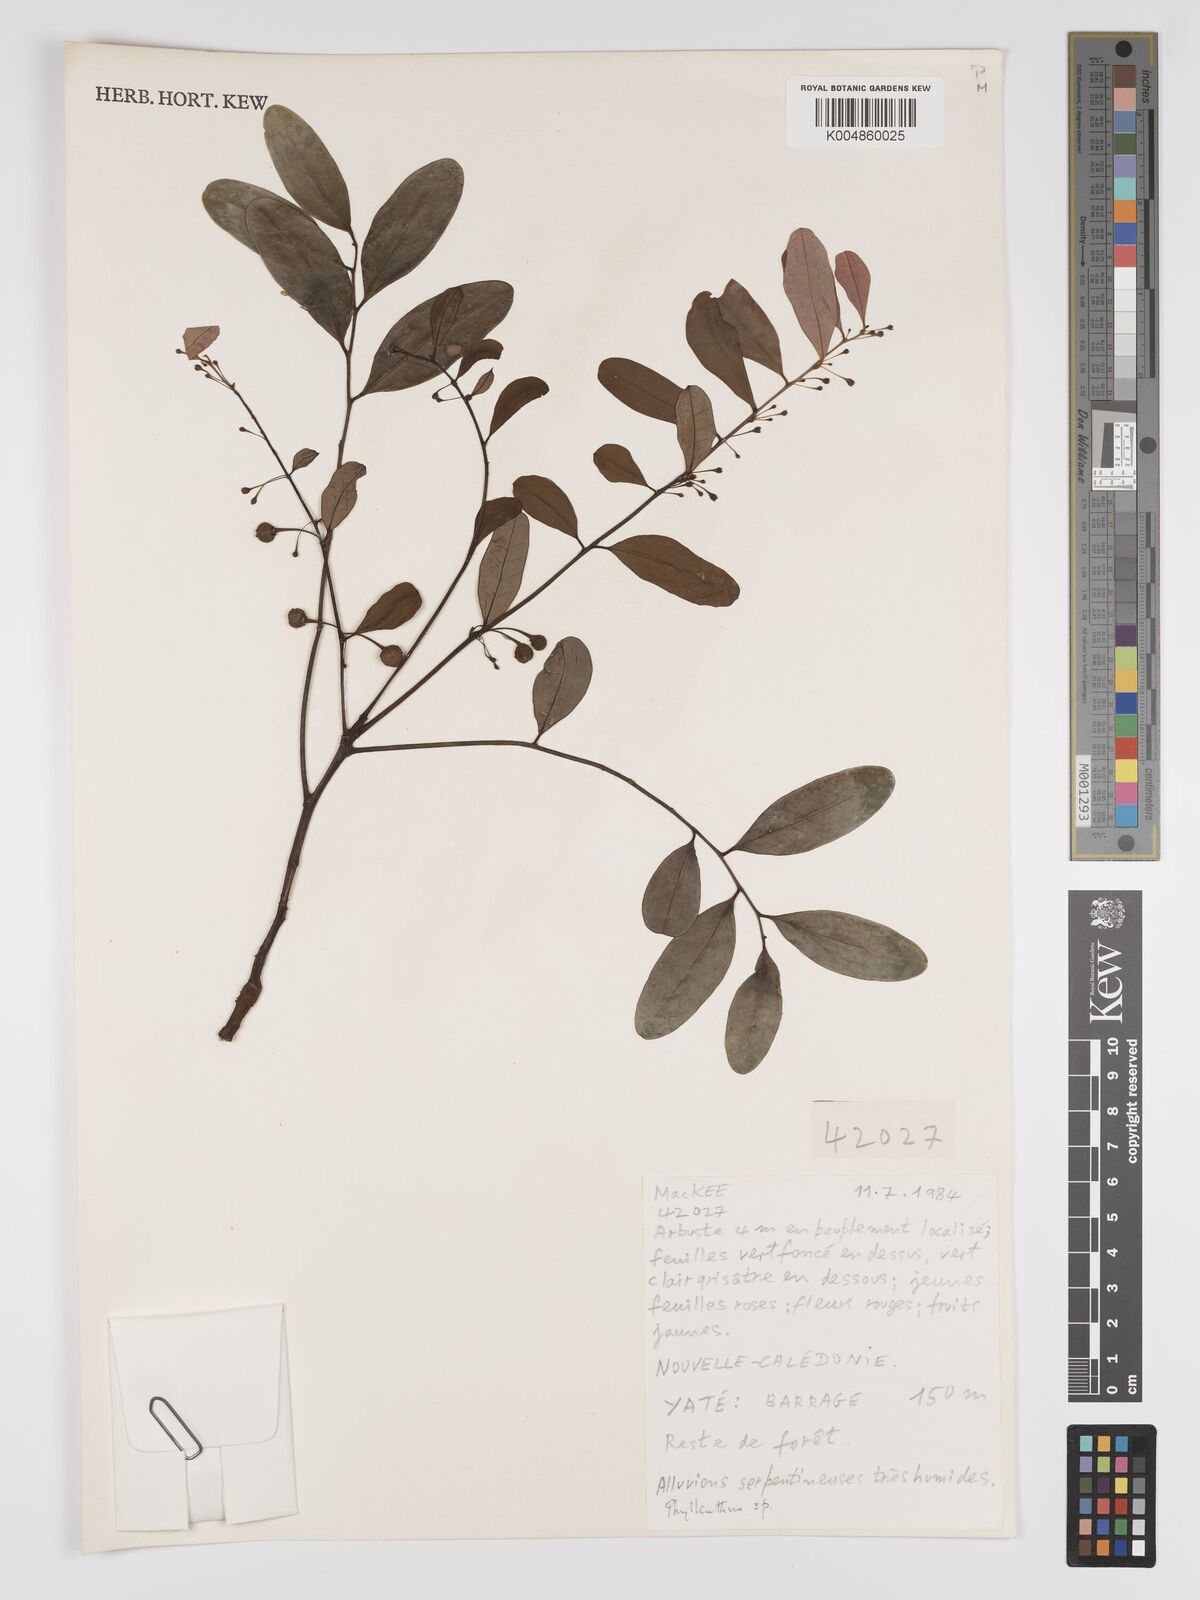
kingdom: Plantae
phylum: Tracheophyta
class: Magnoliopsida
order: Malpighiales
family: Phyllanthaceae
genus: Phyllanthus
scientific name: Phyllanthus
